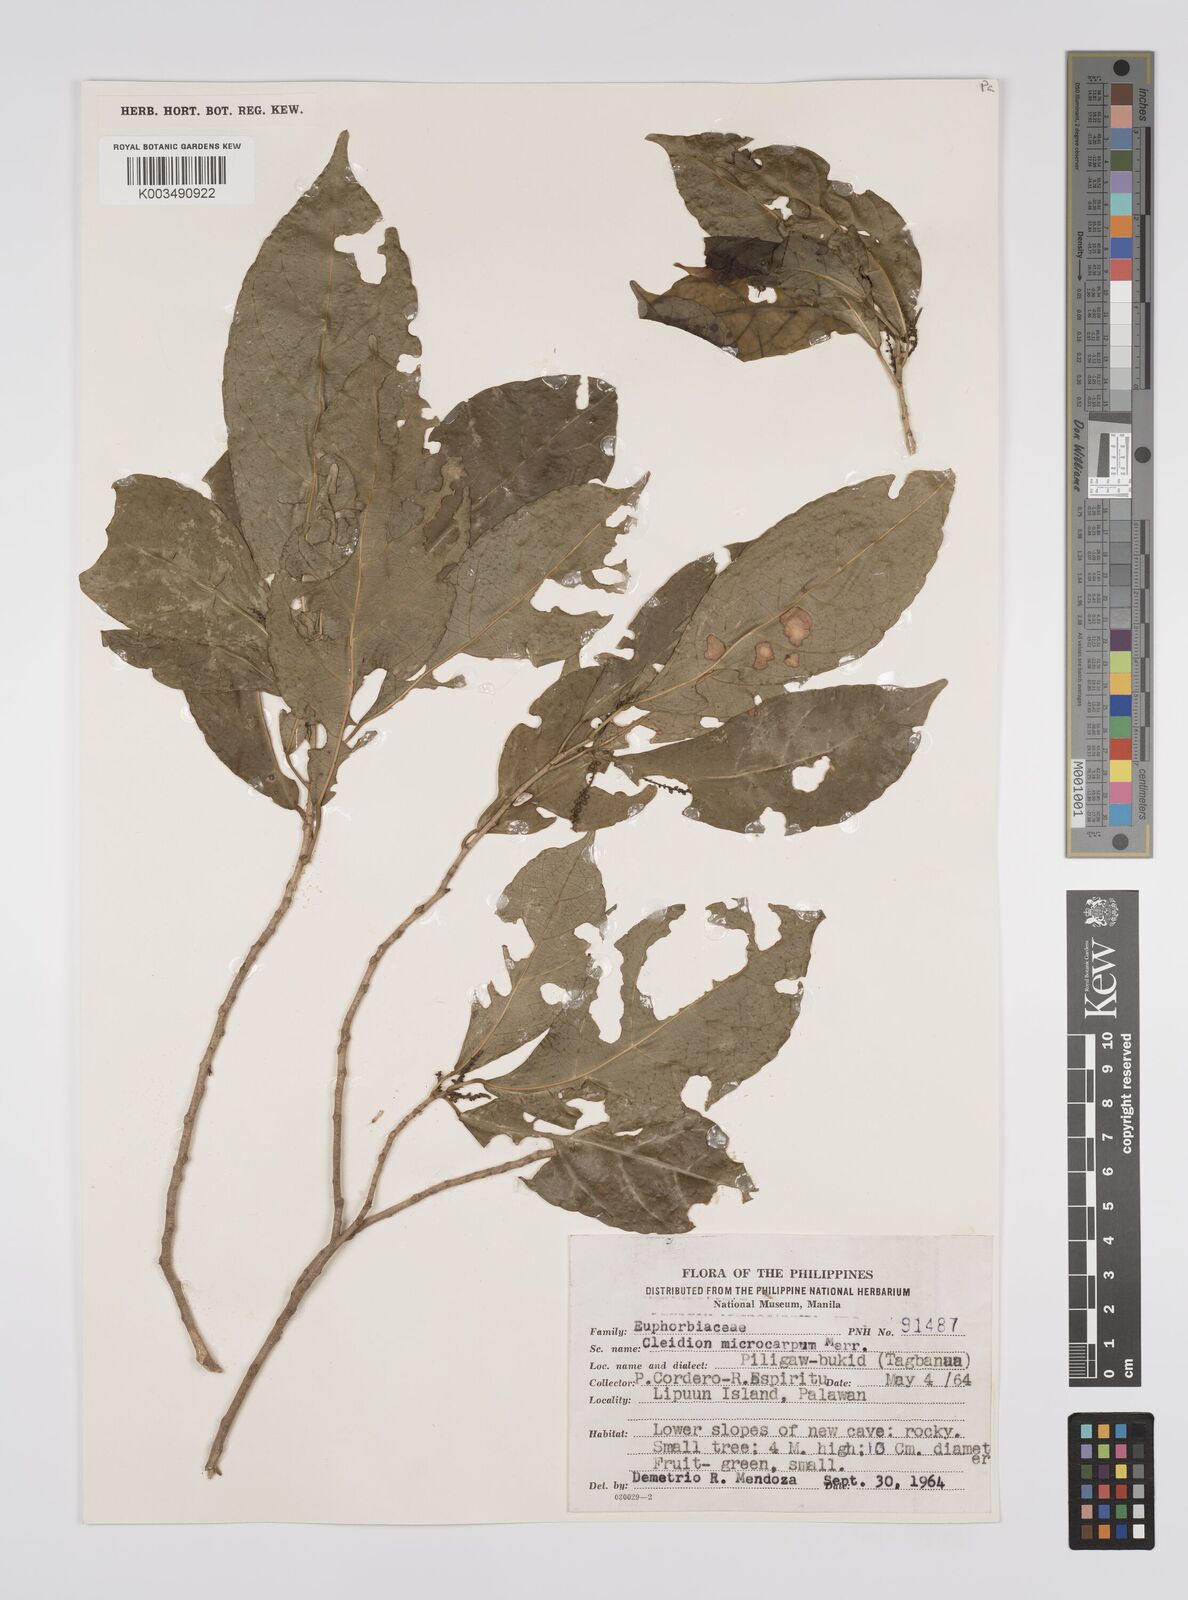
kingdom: Plantae
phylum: Tracheophyta
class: Magnoliopsida
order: Malpighiales
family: Euphorbiaceae
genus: Cleidion
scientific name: Cleidion microcarpum
